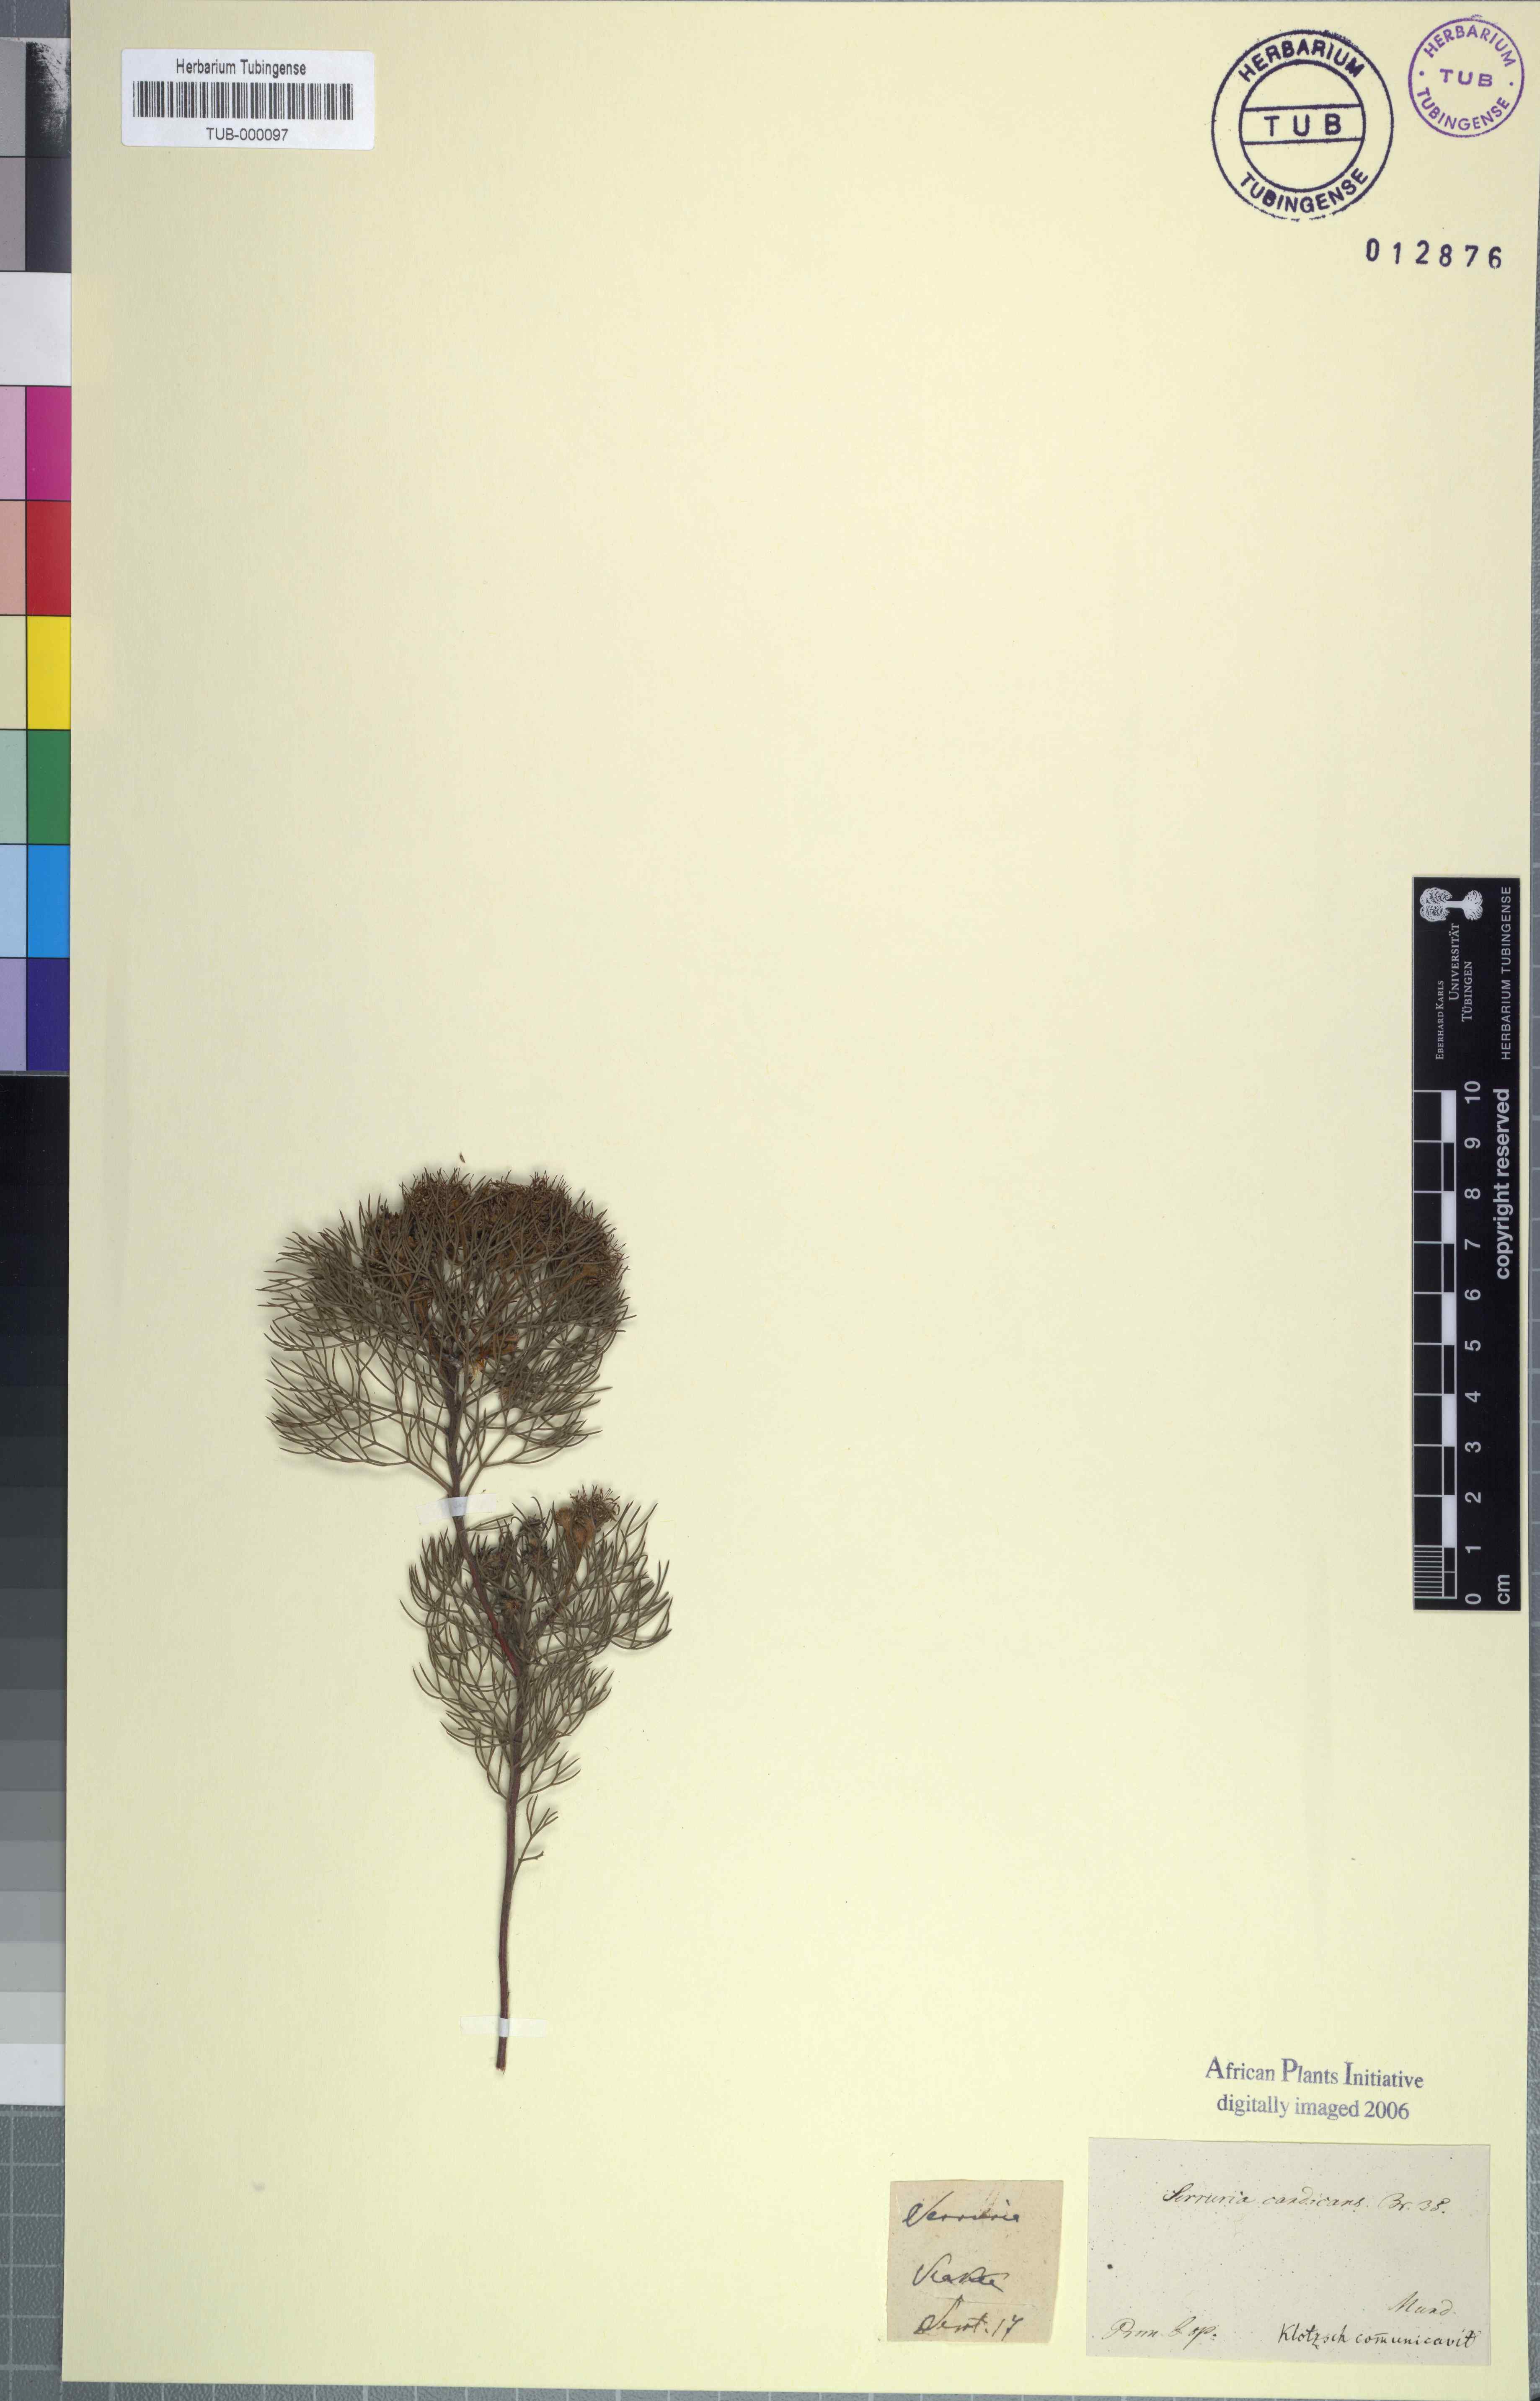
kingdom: Plantae
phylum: Tracheophyta
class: Magnoliopsida
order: Proteales
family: Proteaceae
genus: Serruria
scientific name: Serruria candicans
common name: Shiny spiderhead
